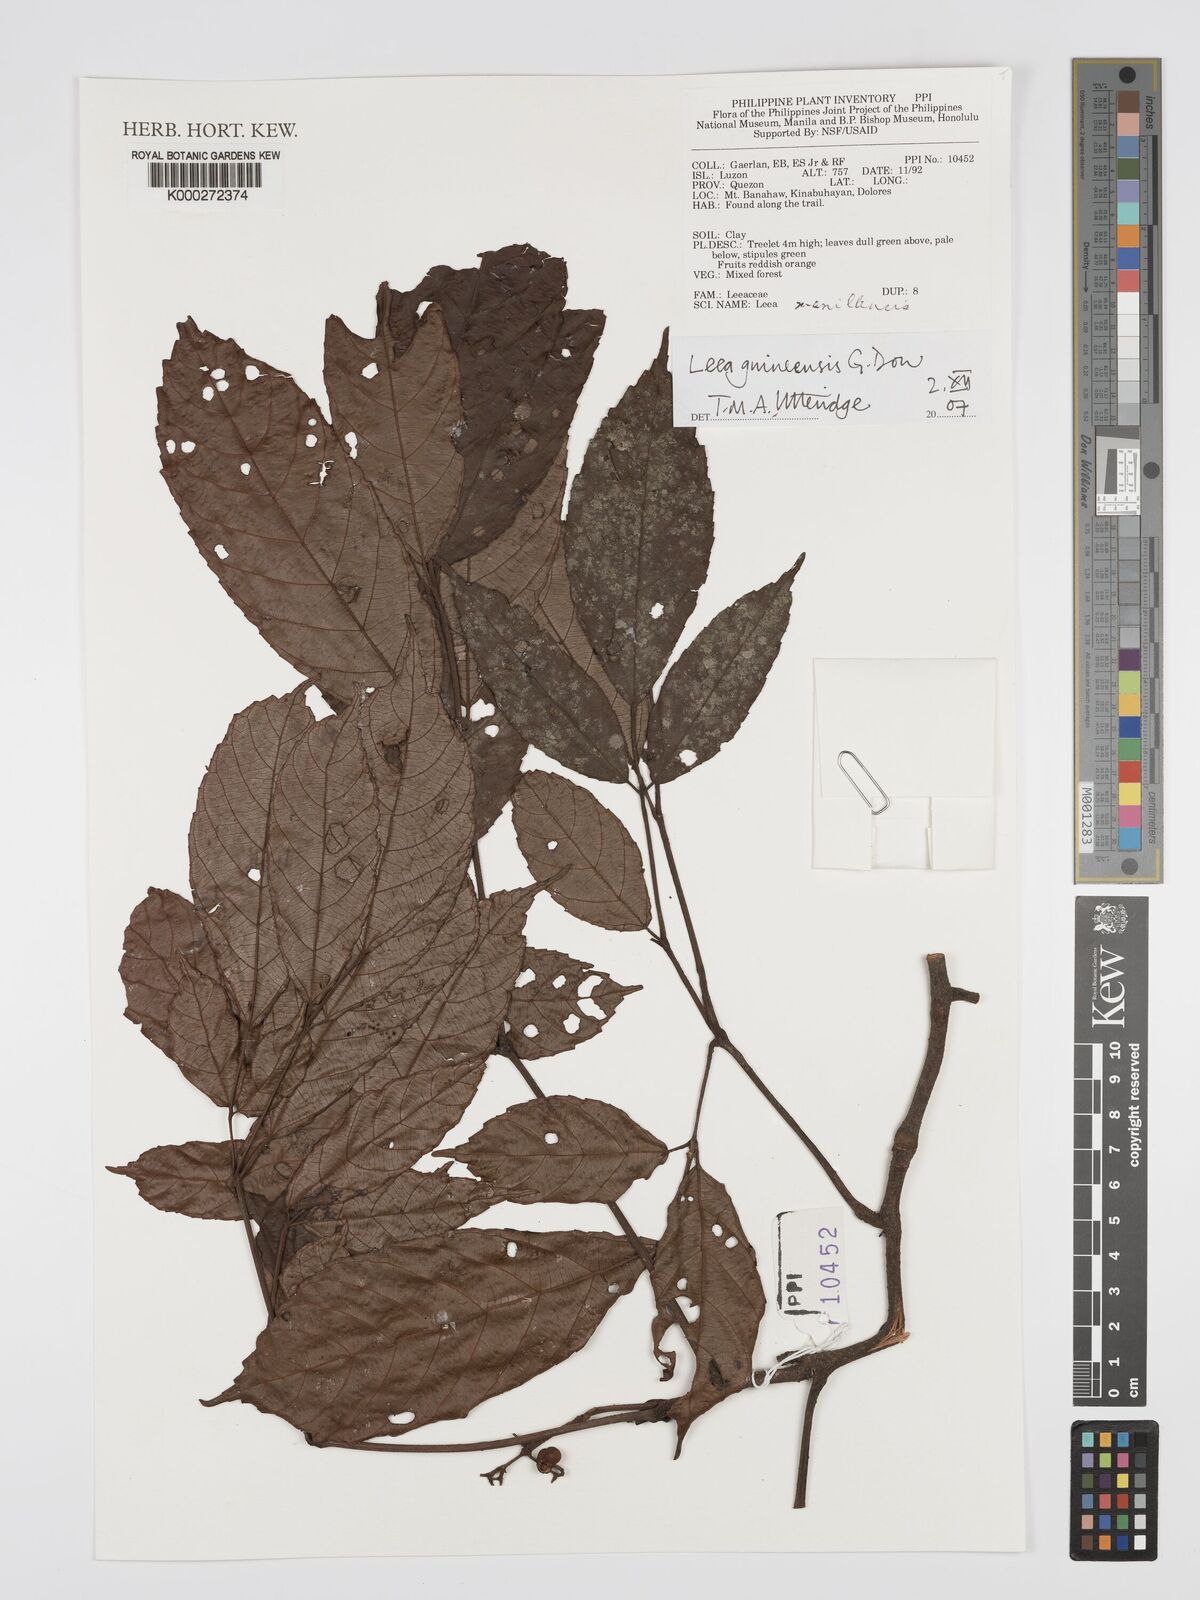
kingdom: Plantae
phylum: Tracheophyta
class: Magnoliopsida
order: Vitales
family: Vitaceae
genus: Leea
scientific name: Leea guineensis
